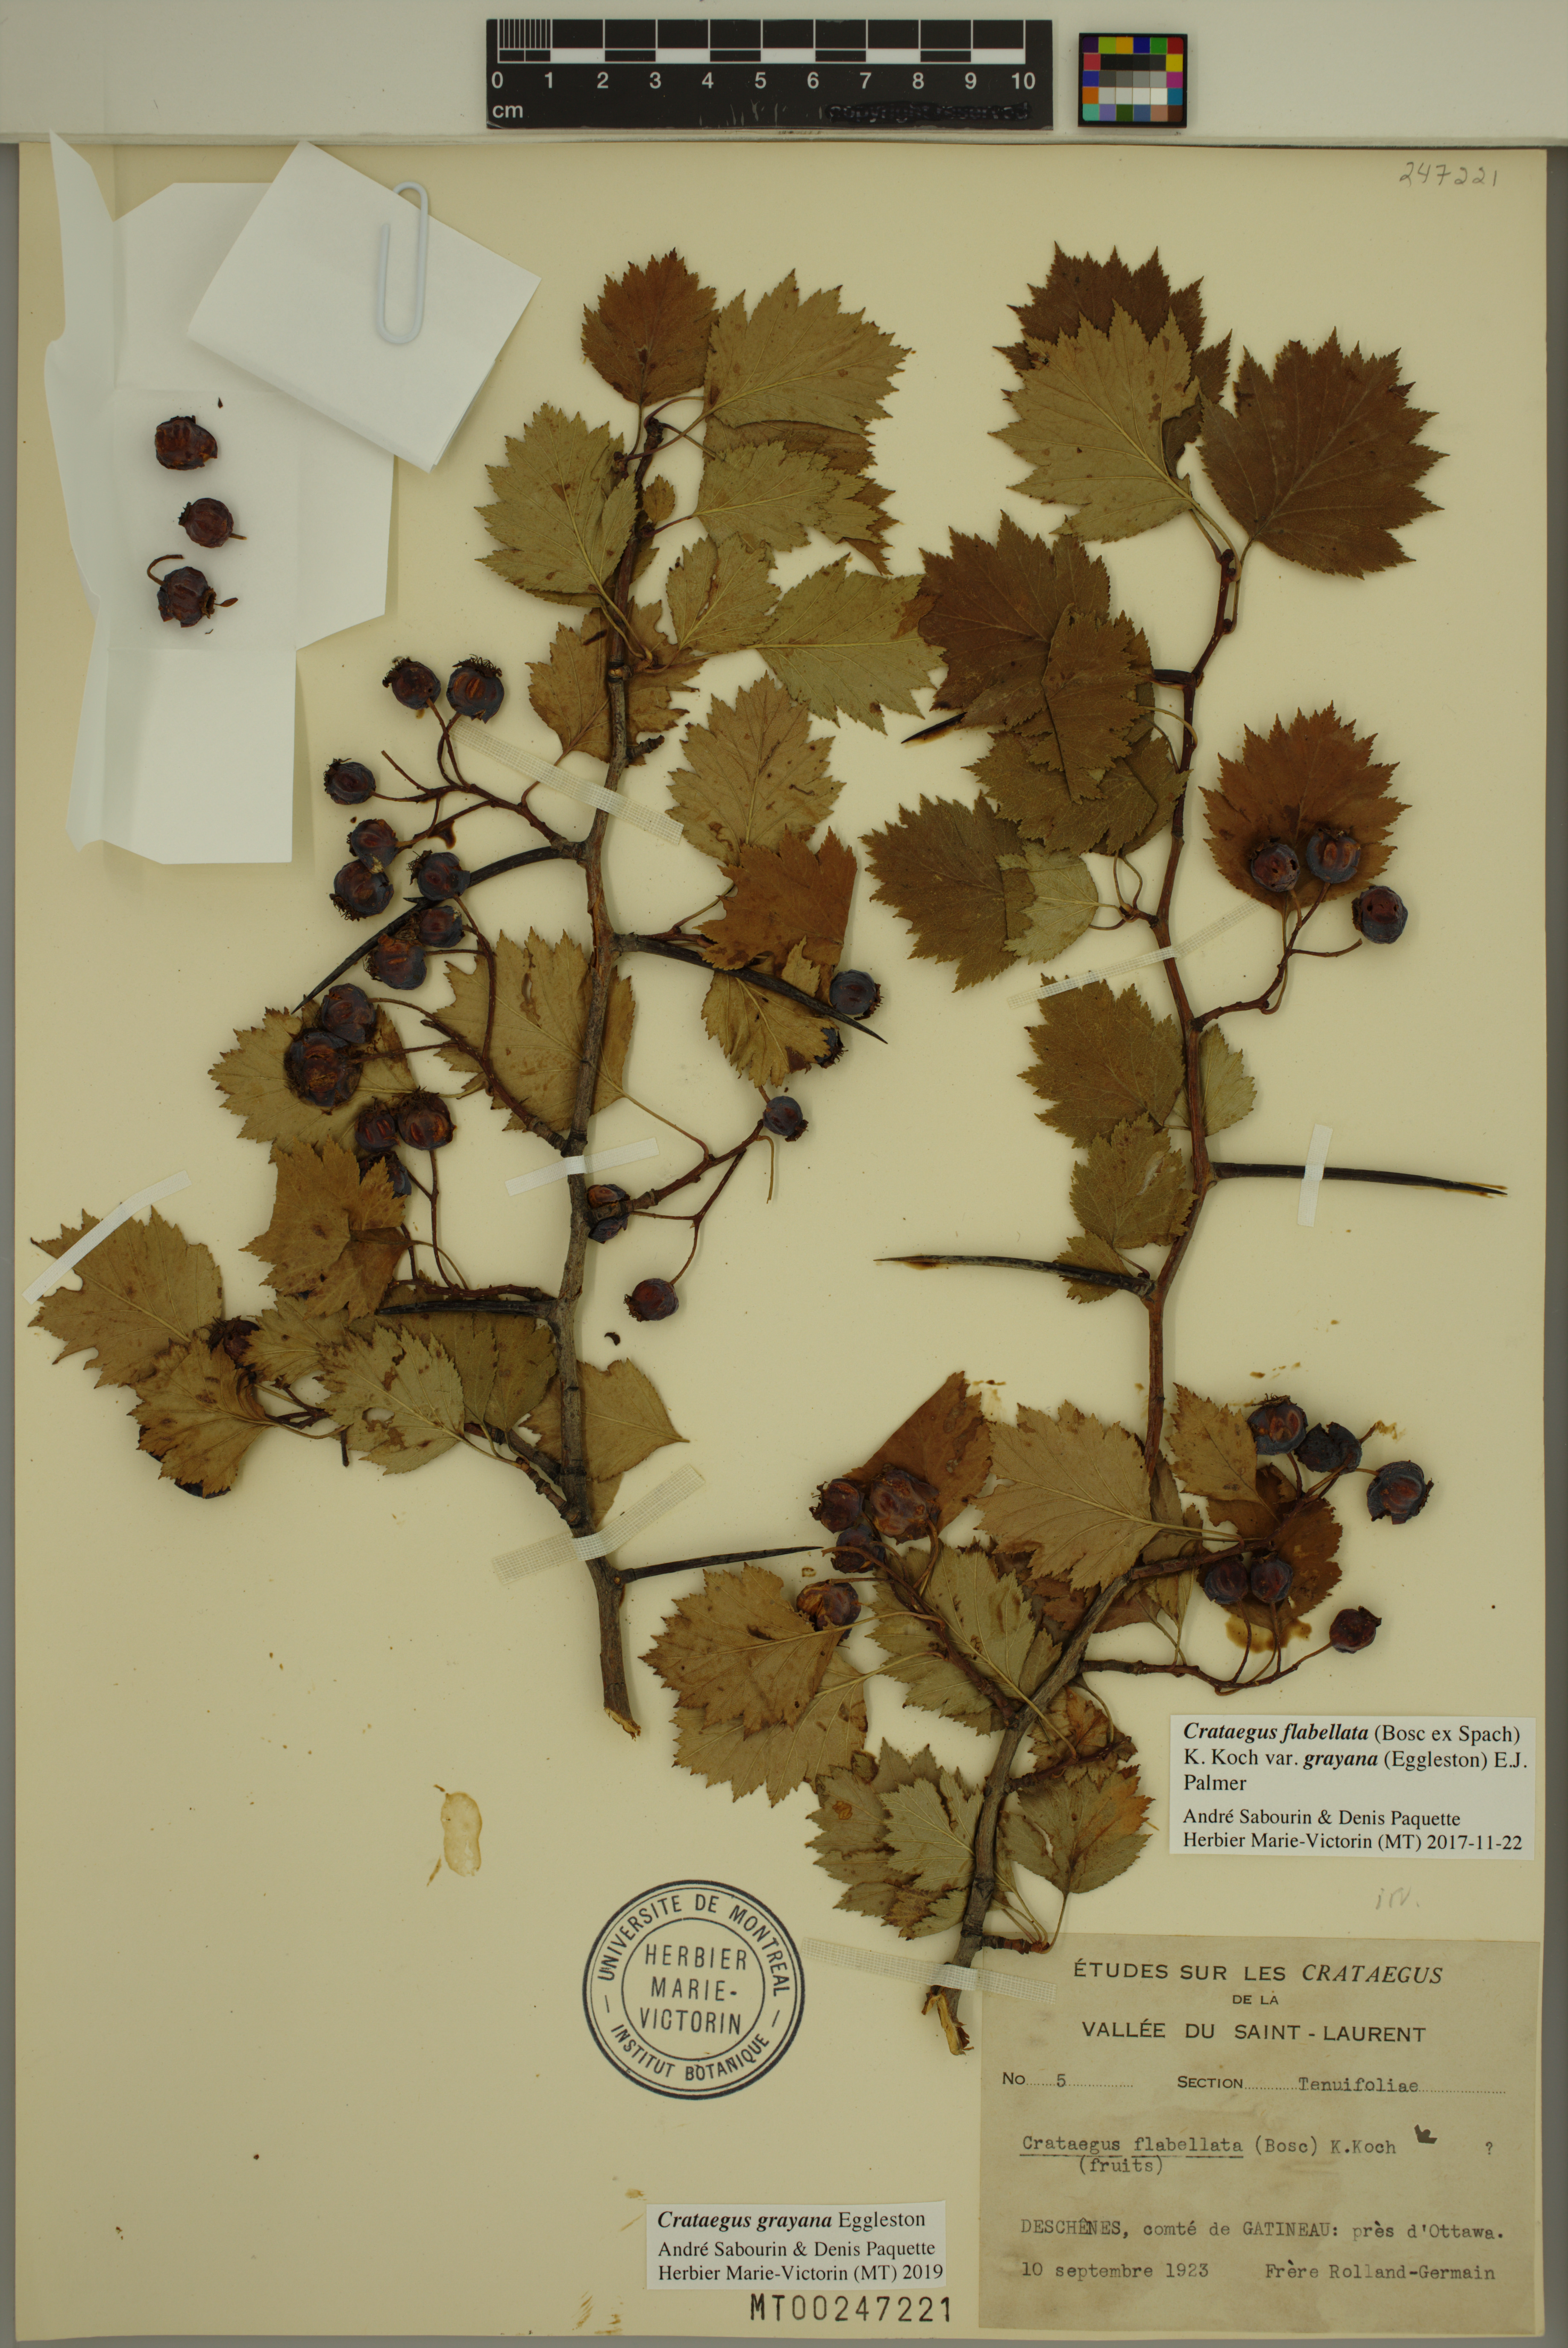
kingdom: Plantae
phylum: Tracheophyta
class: Magnoliopsida
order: Rosales
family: Rosaceae
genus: Crataegus
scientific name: Crataegus schuettei
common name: Schuette's hawthorn
